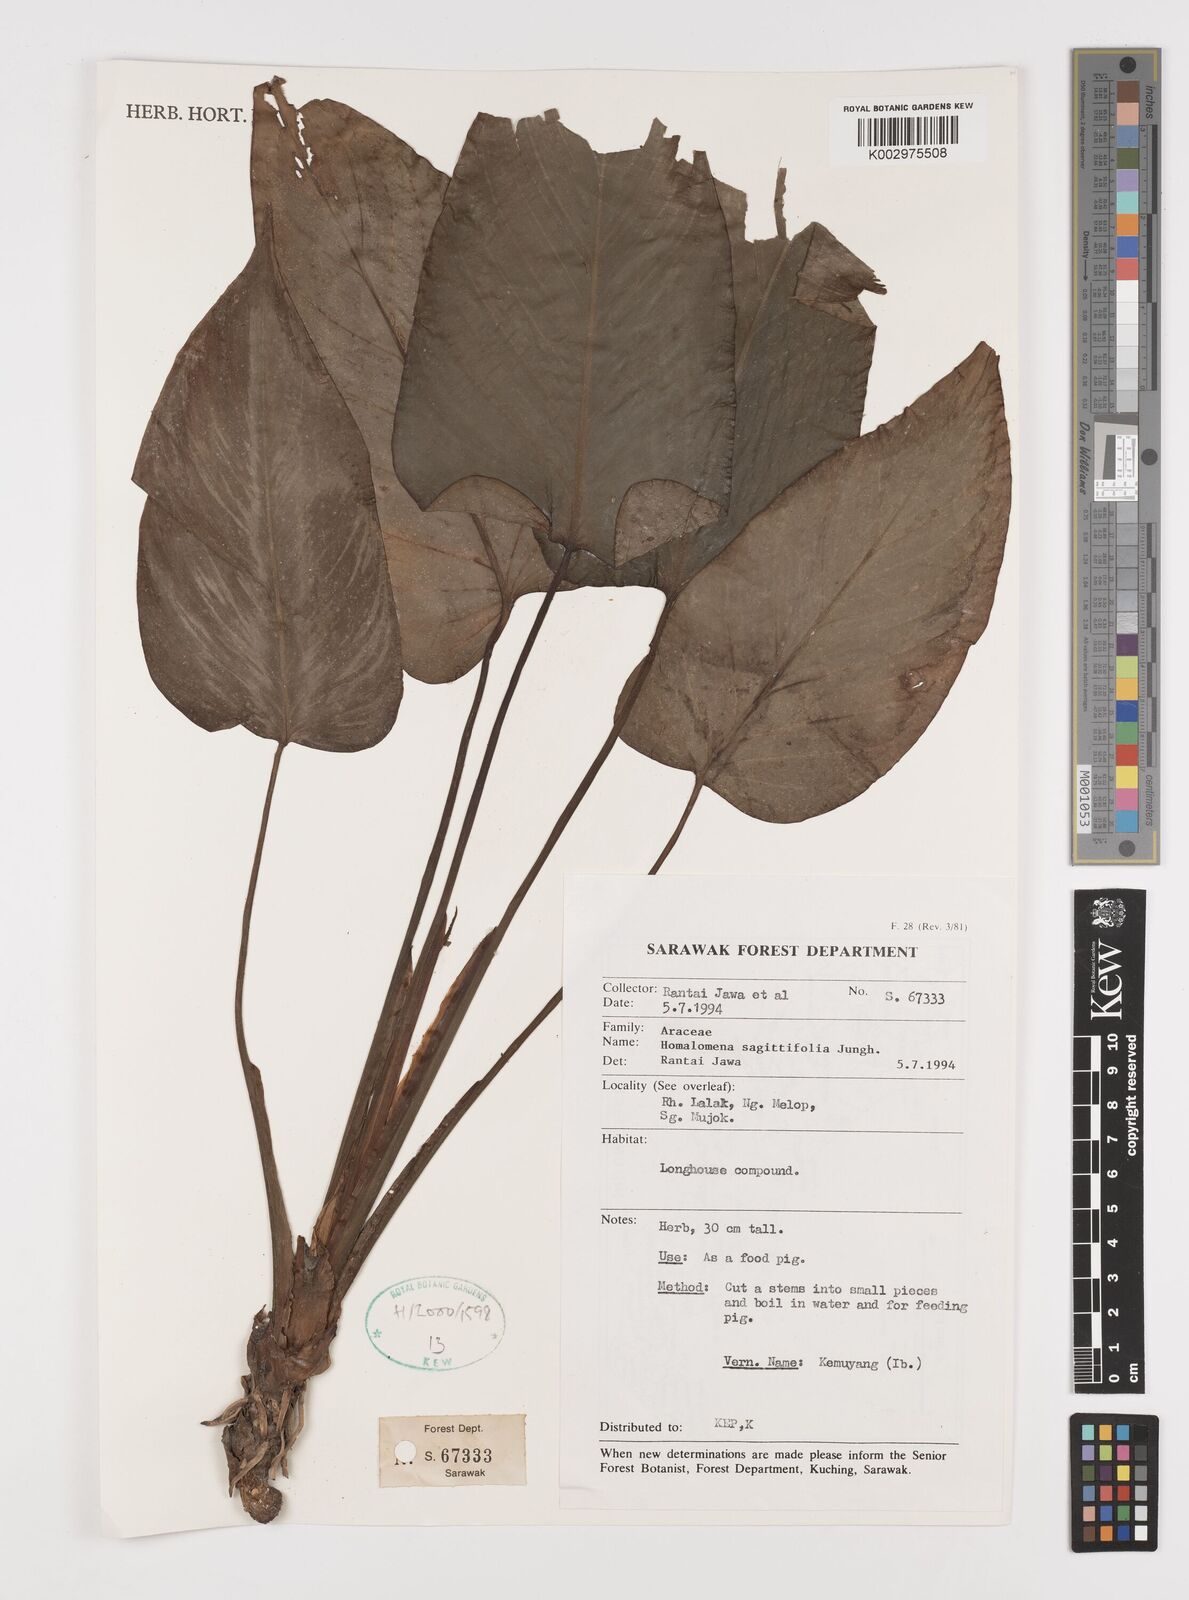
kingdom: Plantae
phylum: Tracheophyta
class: Liliopsida
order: Alismatales
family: Araceae
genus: Homalomena
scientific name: Homalomena rostrata
